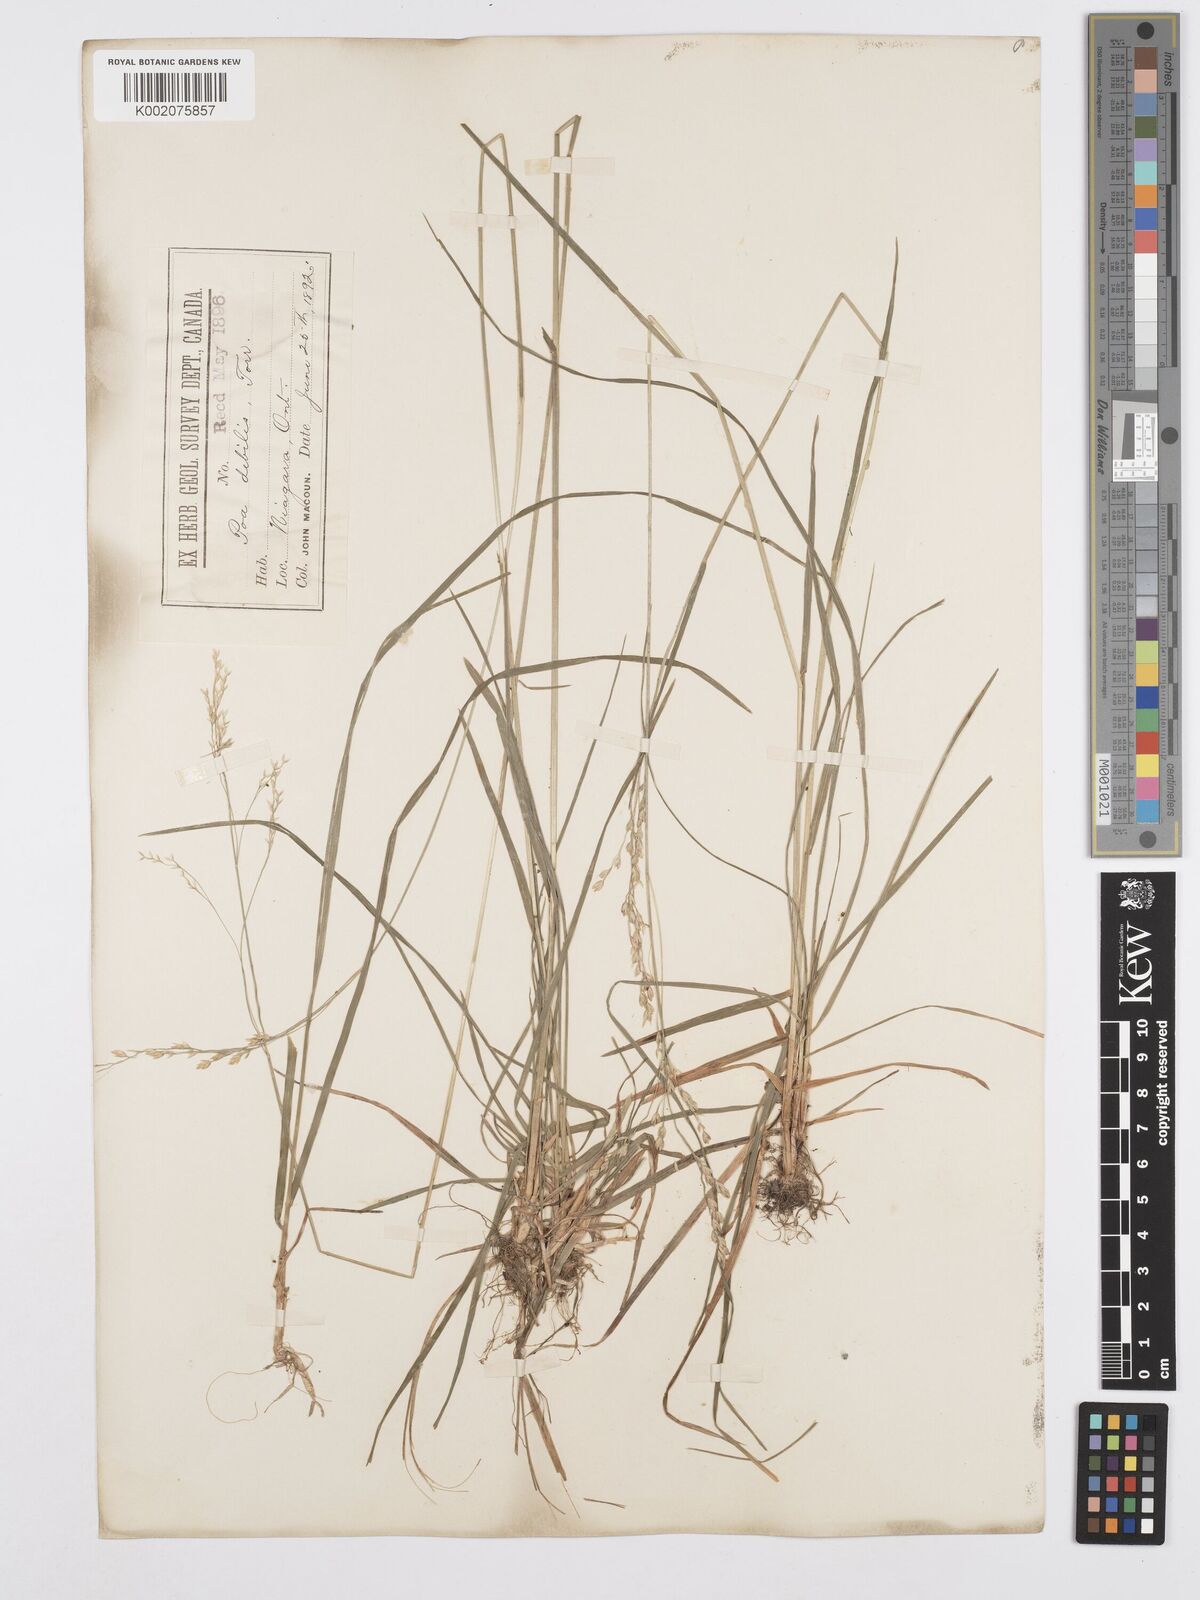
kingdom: Plantae
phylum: Tracheophyta
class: Liliopsida
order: Poales
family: Poaceae
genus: Poa
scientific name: Poa saltuensis
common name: Bushy pasture speargrass
